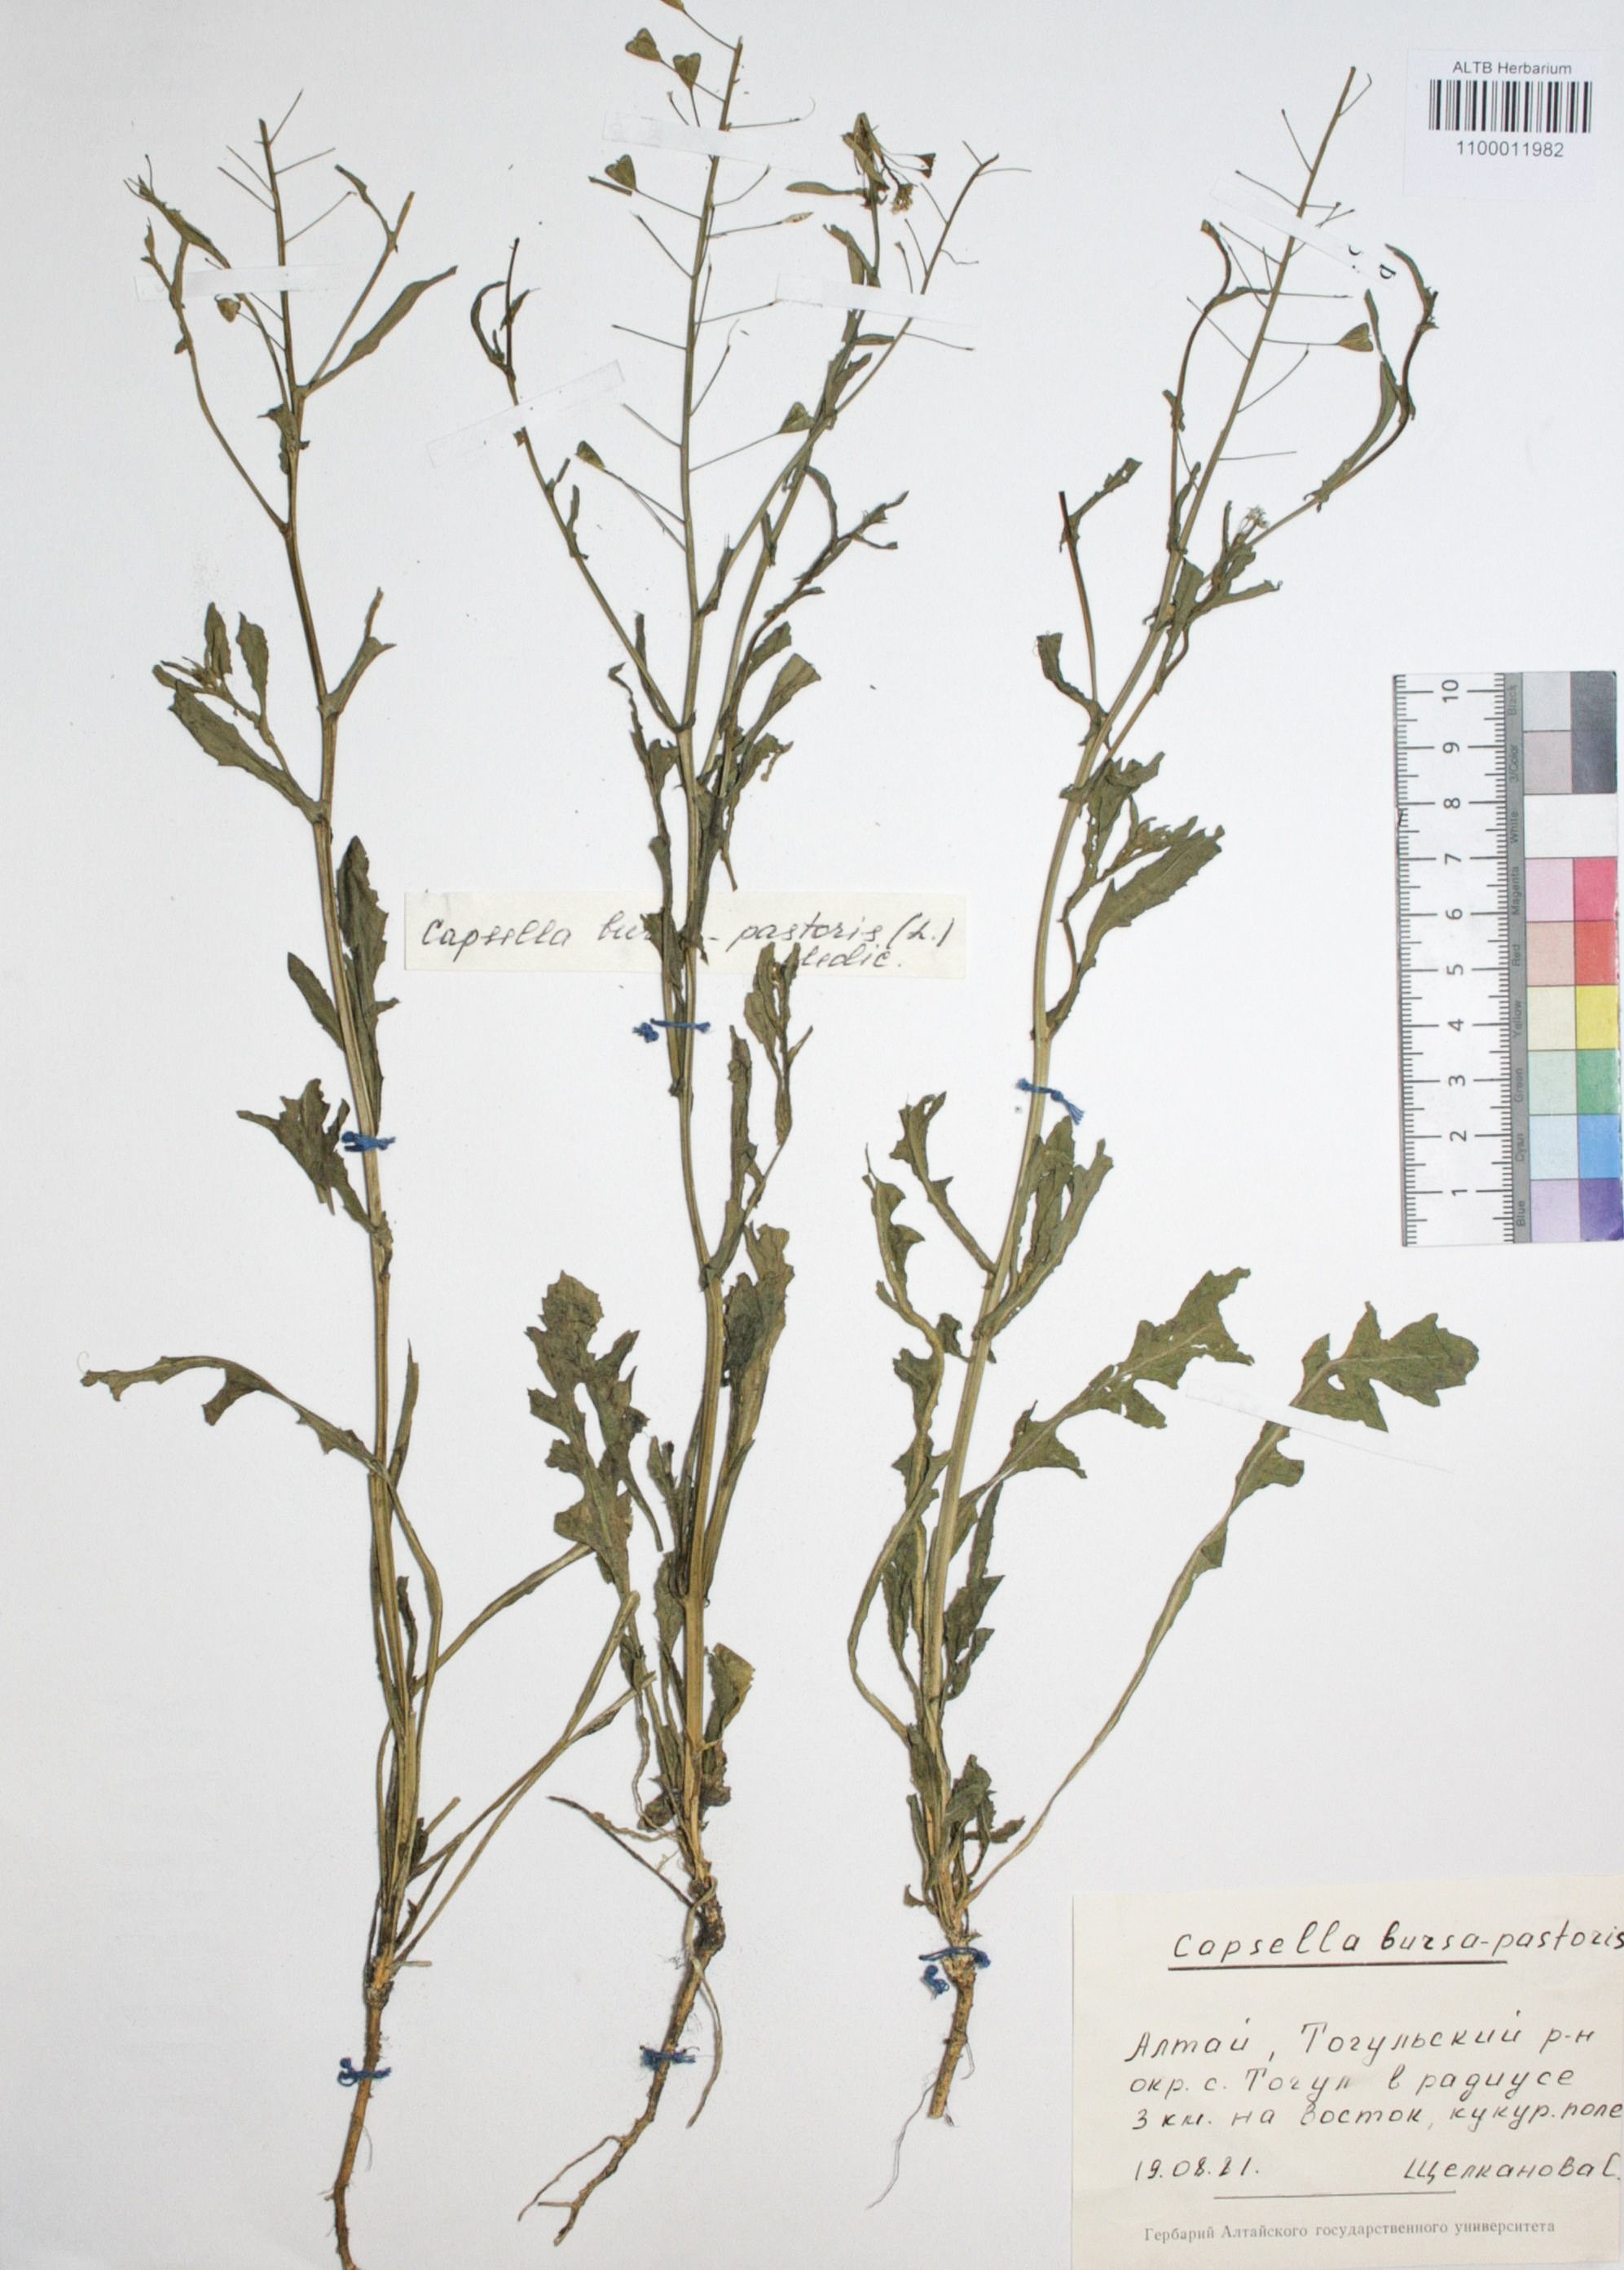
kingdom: Plantae
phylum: Tracheophyta
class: Magnoliopsida
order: Brassicales
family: Brassicaceae
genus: Capsella
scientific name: Capsella bursa-pastoris
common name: Shepherd's purse
